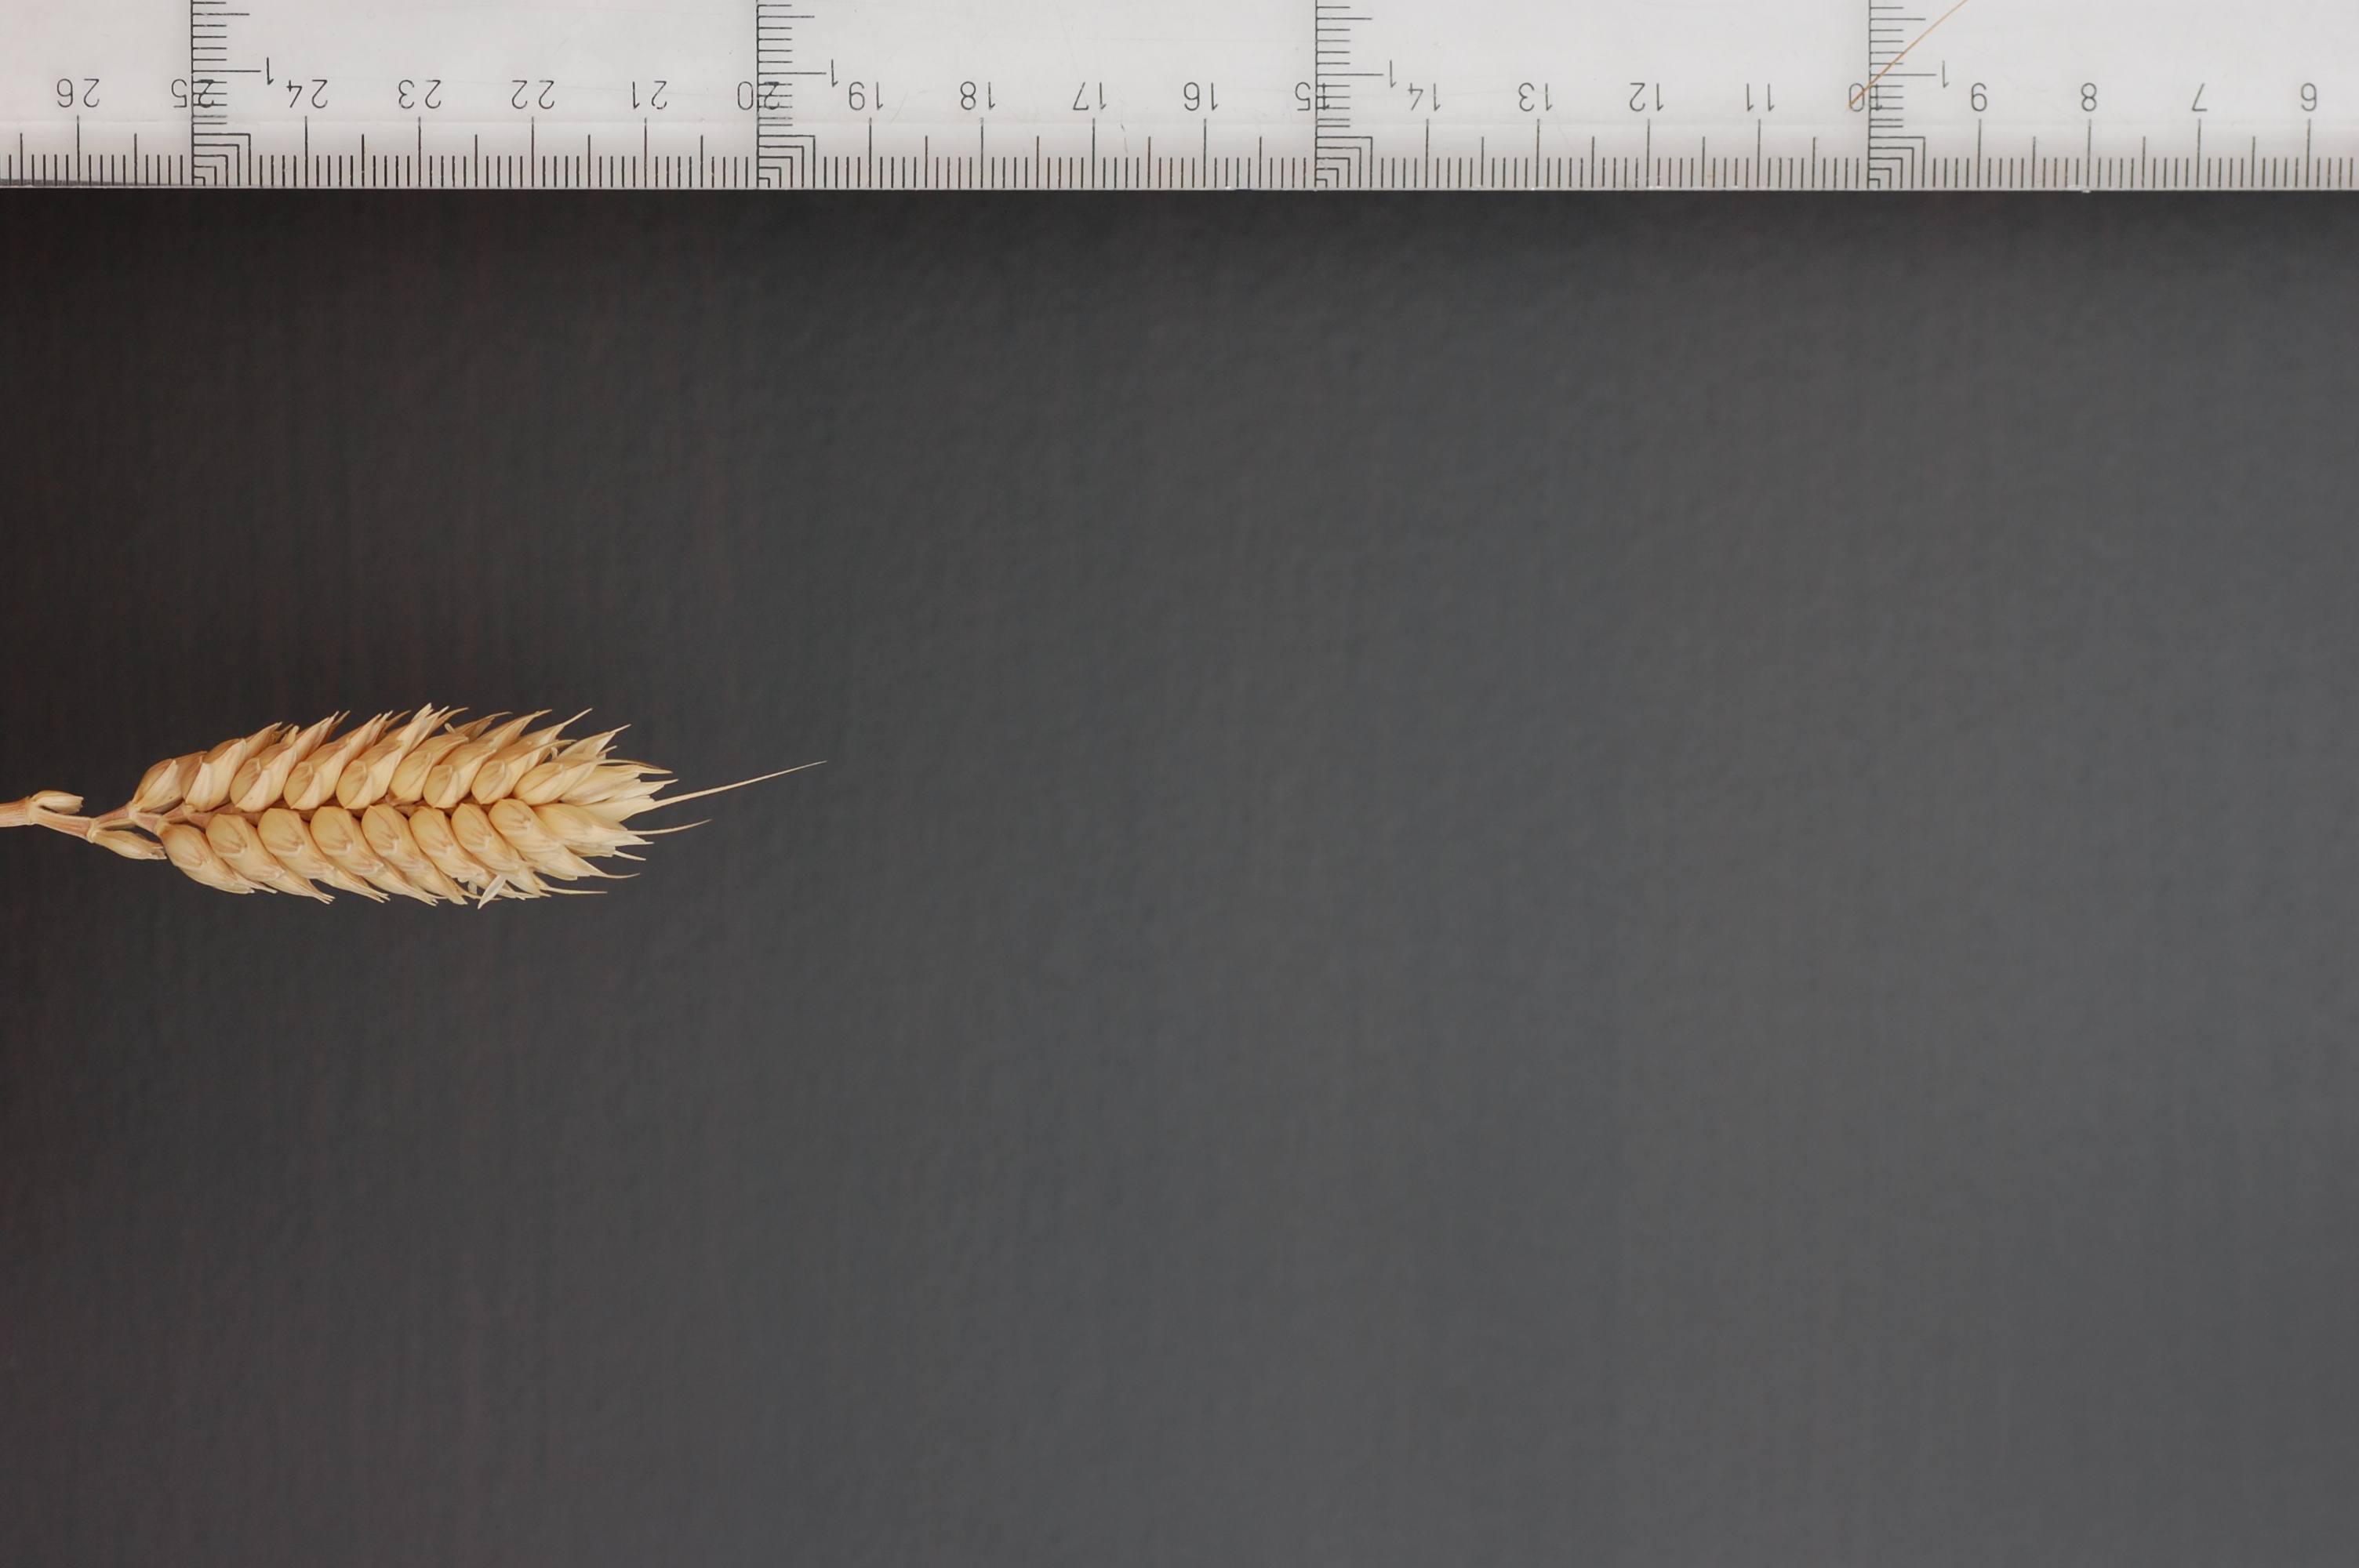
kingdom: Plantae
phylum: Tracheophyta
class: Liliopsida
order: Poales
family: Poaceae
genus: Triticum
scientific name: Triticum aestivum
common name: Common wheat
